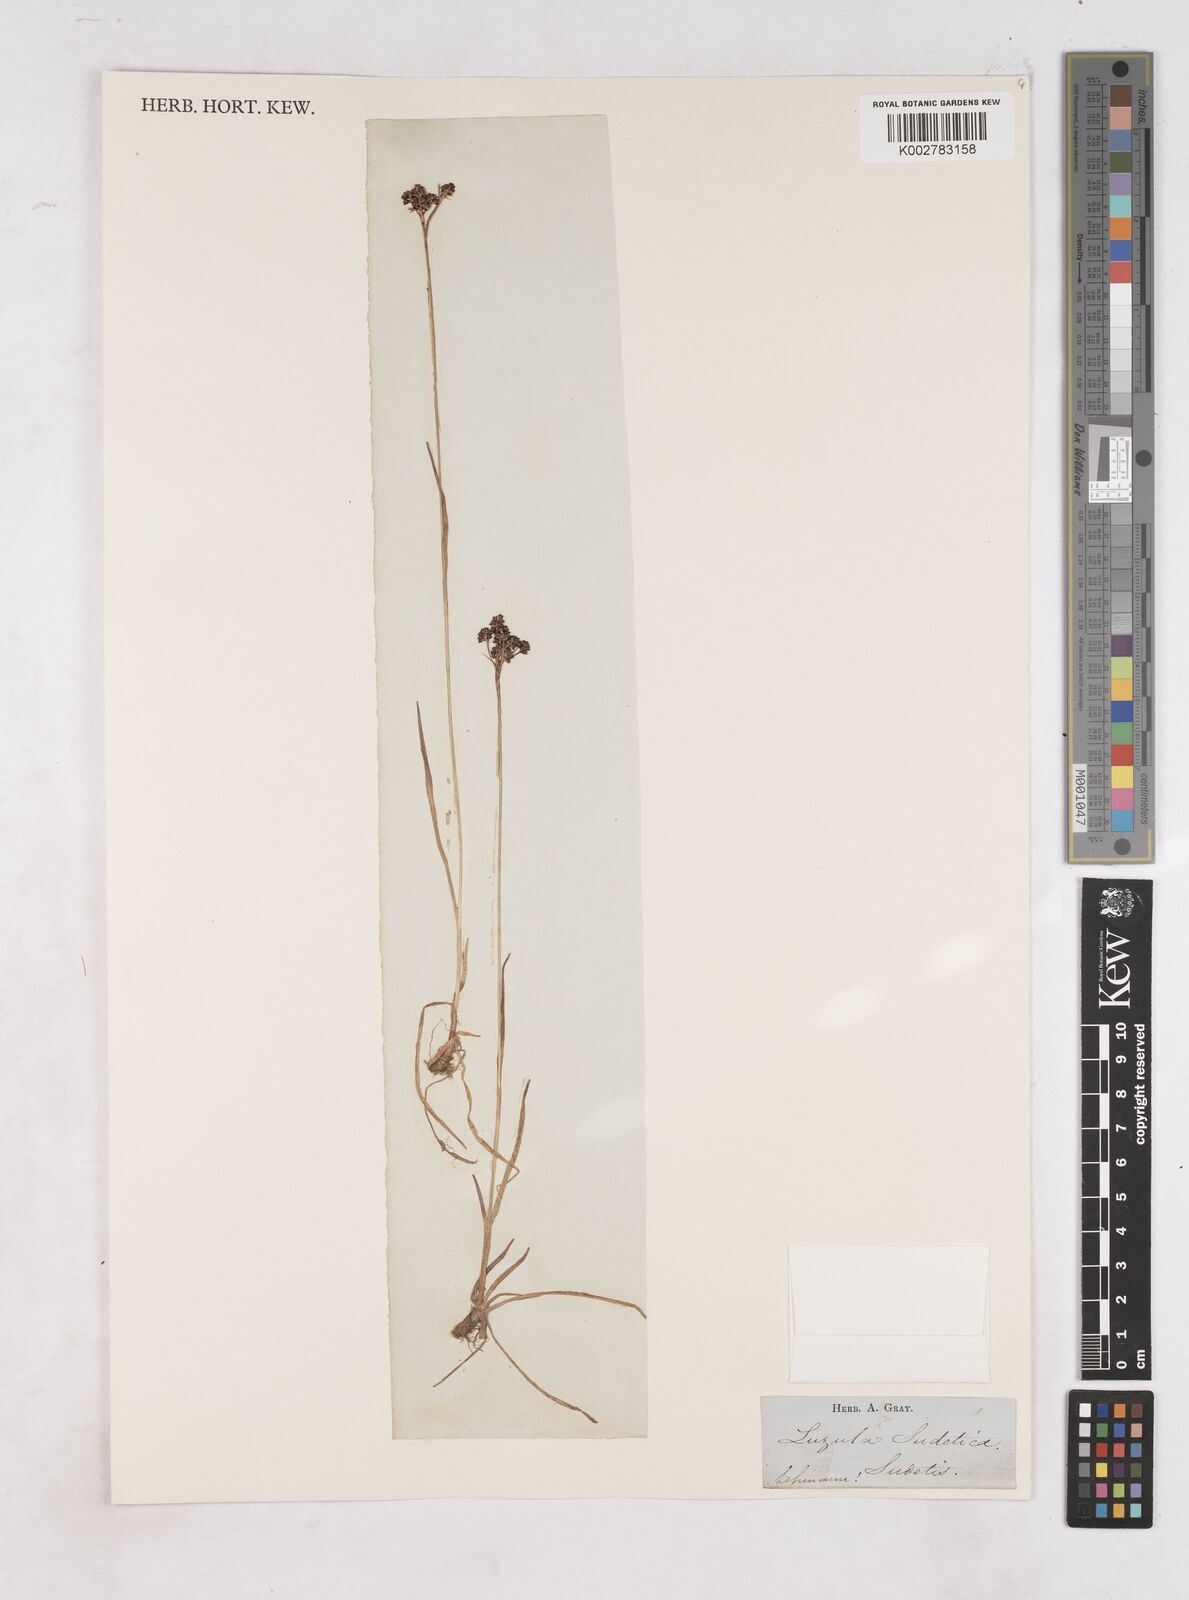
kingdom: Plantae
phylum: Tracheophyta
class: Liliopsida
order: Poales
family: Juncaceae
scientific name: Juncaceae
